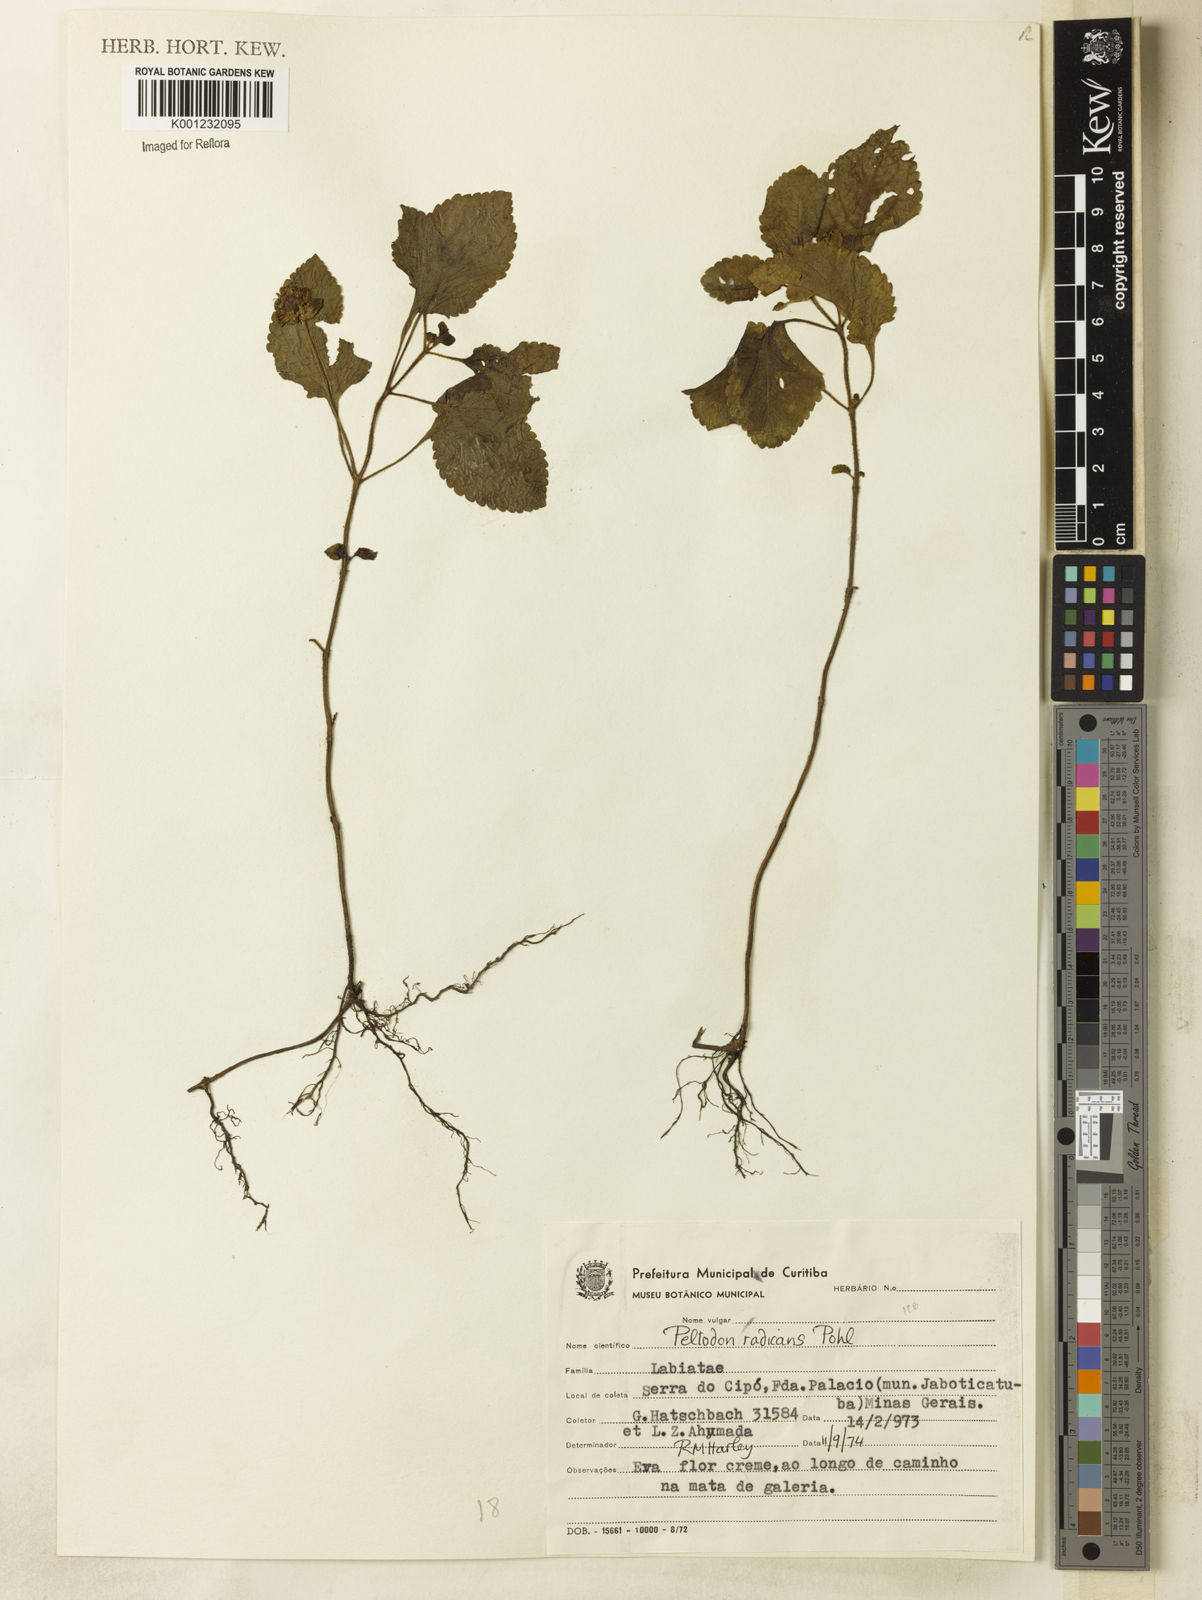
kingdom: Plantae
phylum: Tracheophyta
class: Magnoliopsida
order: Lamiales
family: Lamiaceae
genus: Hyptis
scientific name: Hyptis radicans
